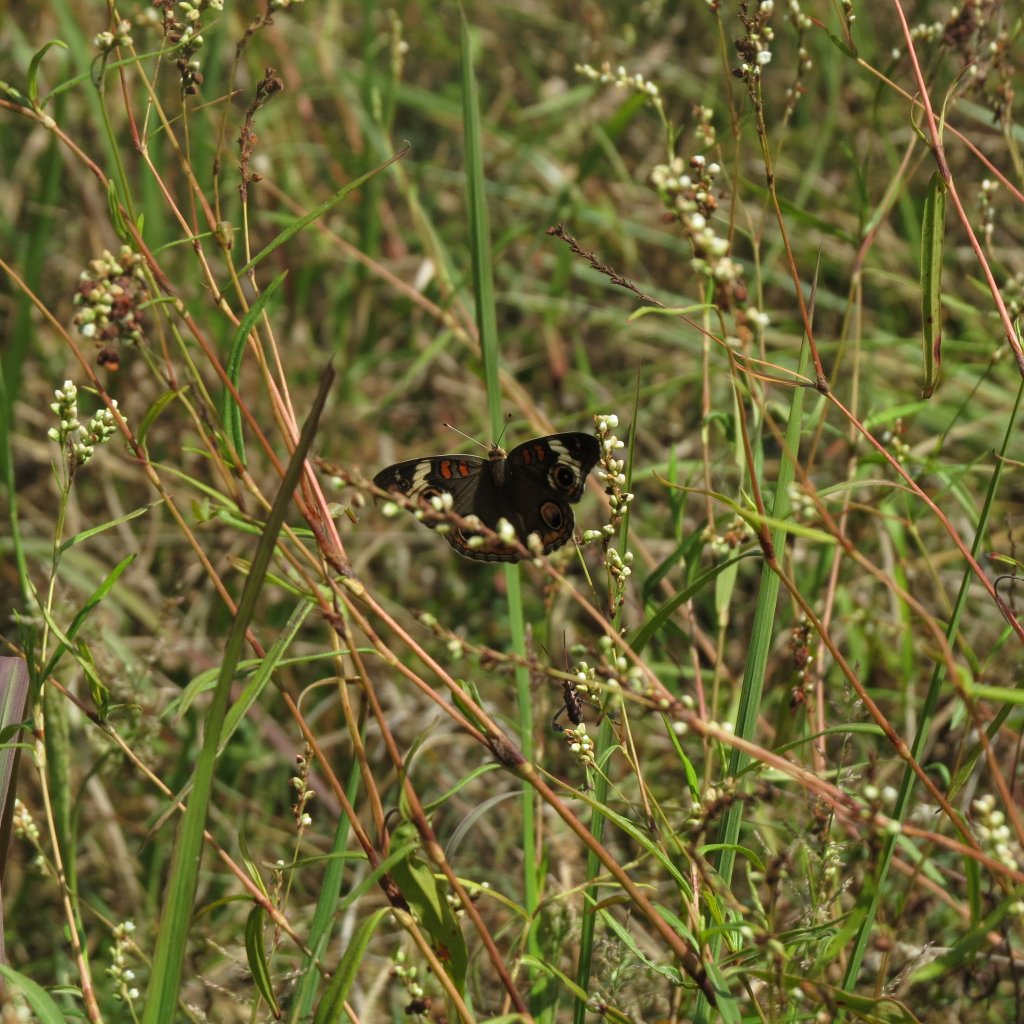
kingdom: Animalia
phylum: Arthropoda
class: Insecta
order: Lepidoptera
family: Nymphalidae
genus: Junonia
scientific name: Junonia coenia
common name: Common Buckeye
